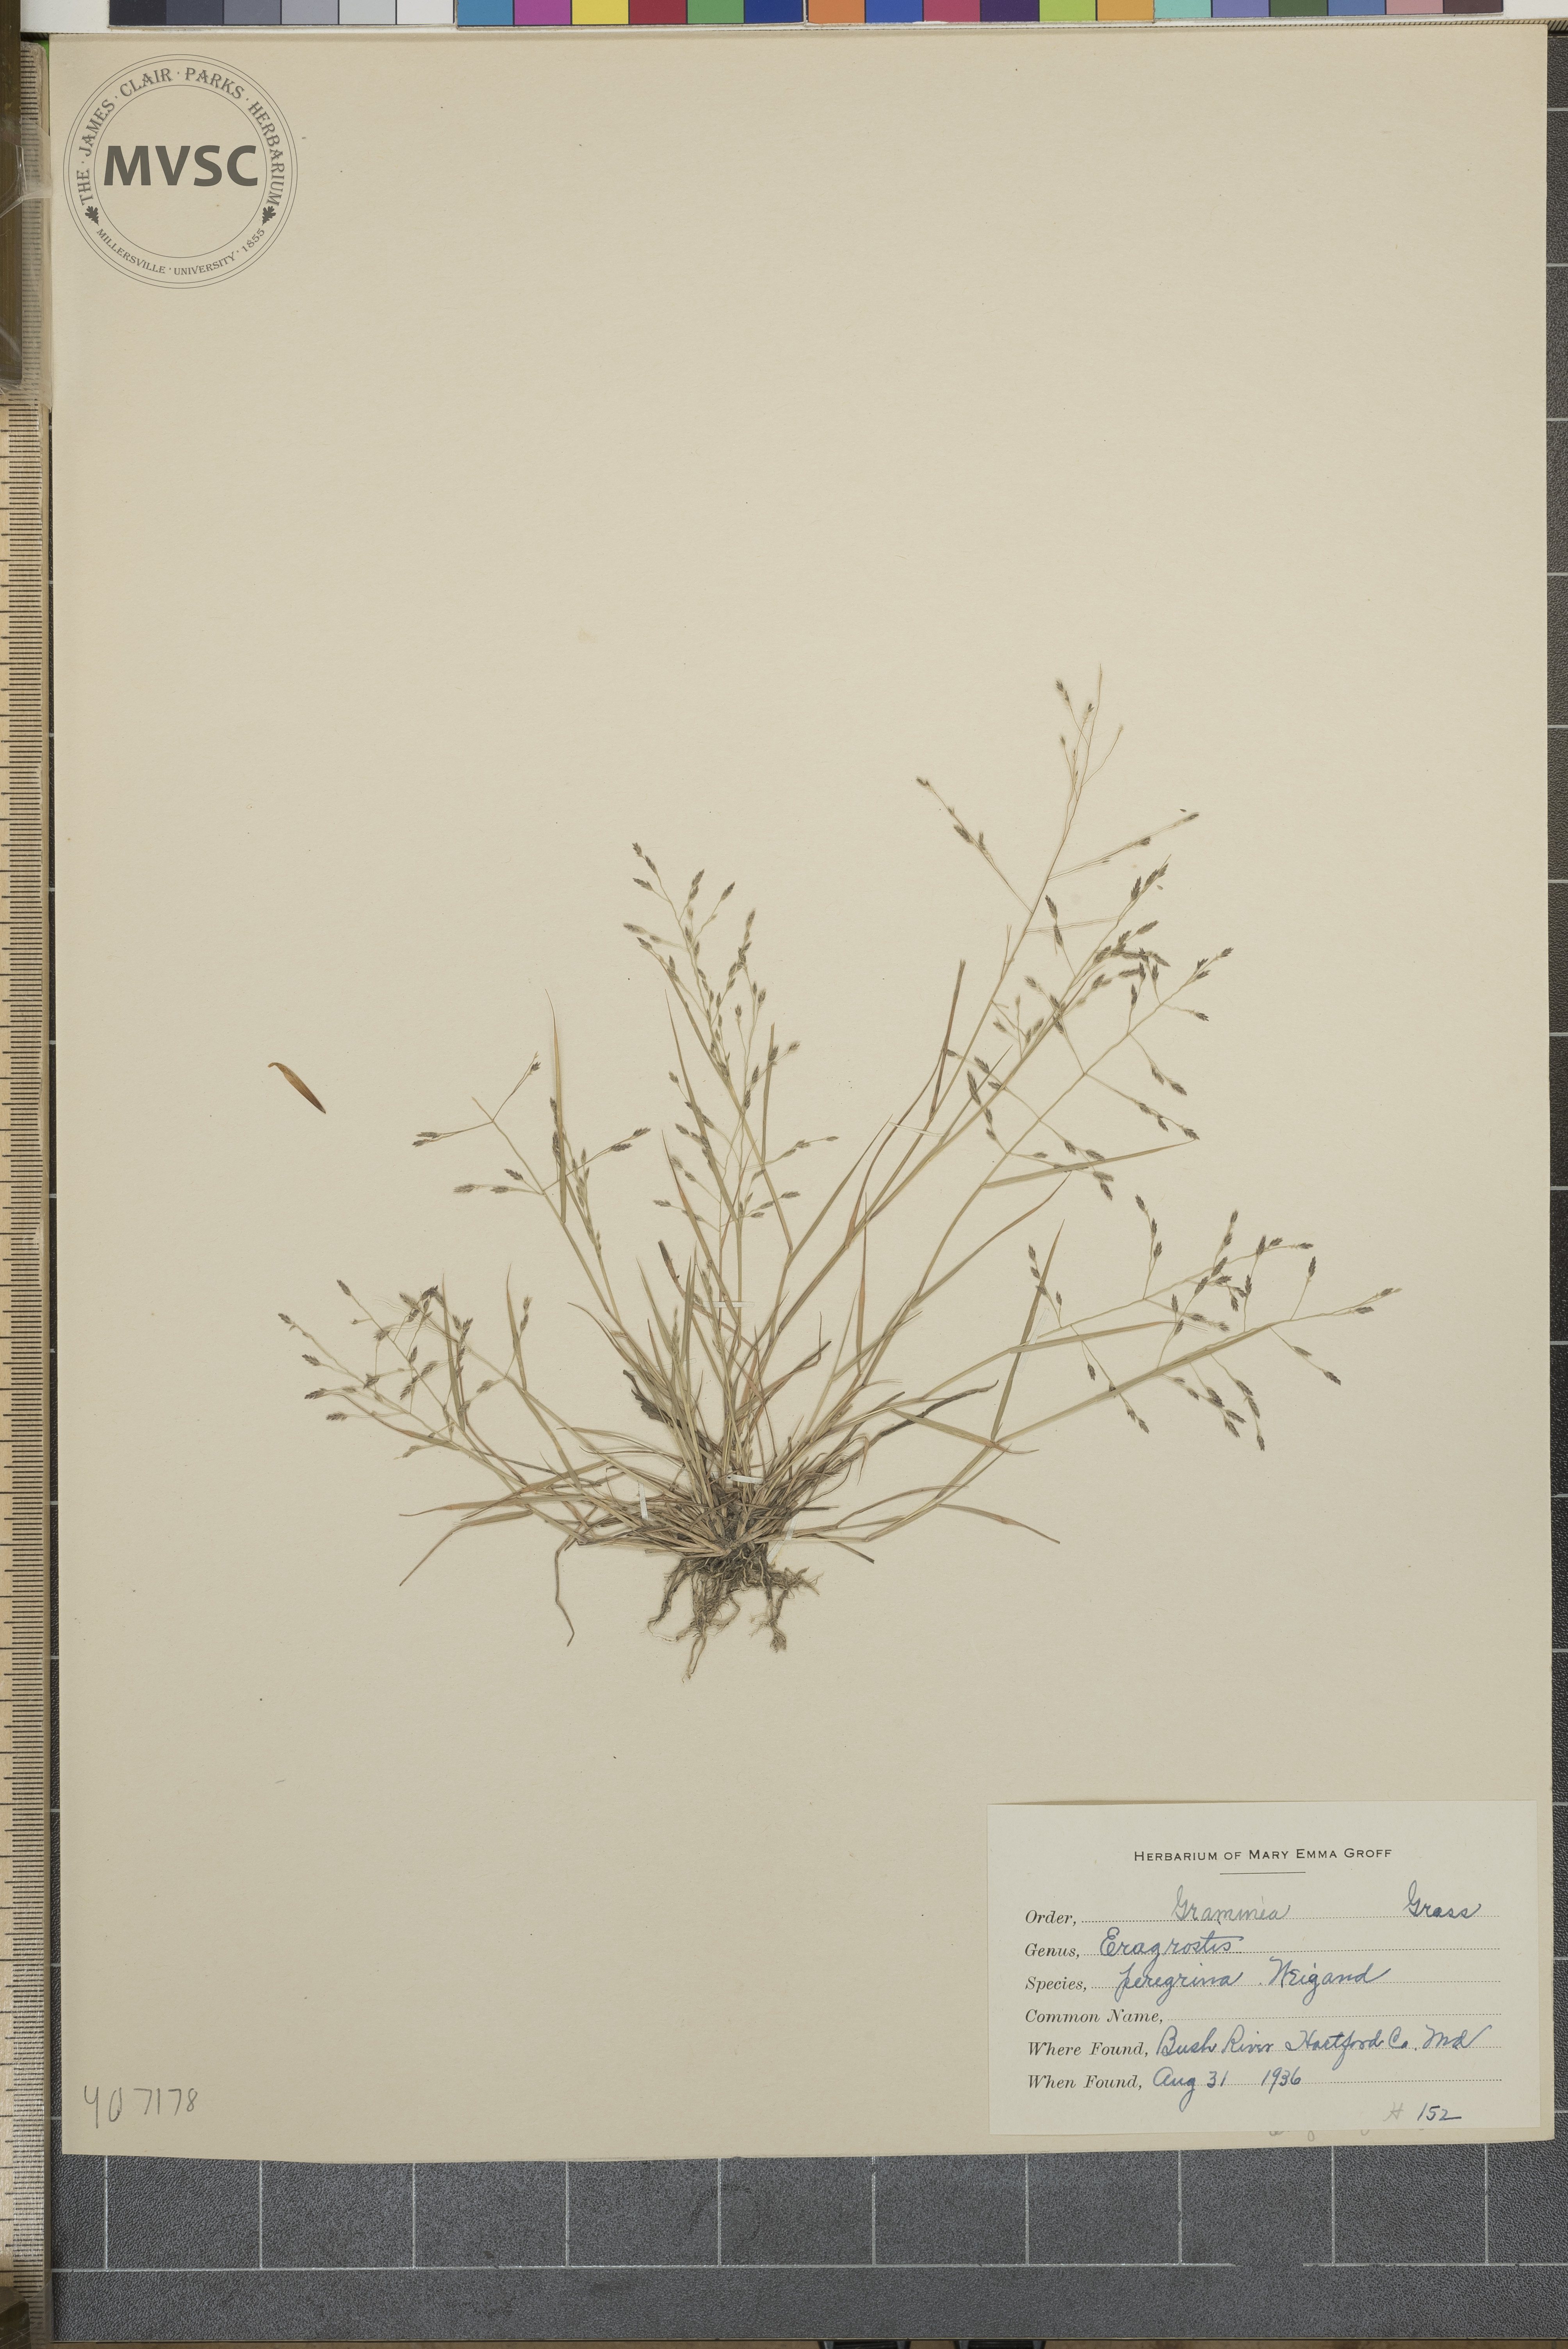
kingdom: Plantae
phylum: Tracheophyta
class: Liliopsida
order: Poales
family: Poaceae
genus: Eragrostis
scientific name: Eragrostis pectinacea
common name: Tufted lovegrass
